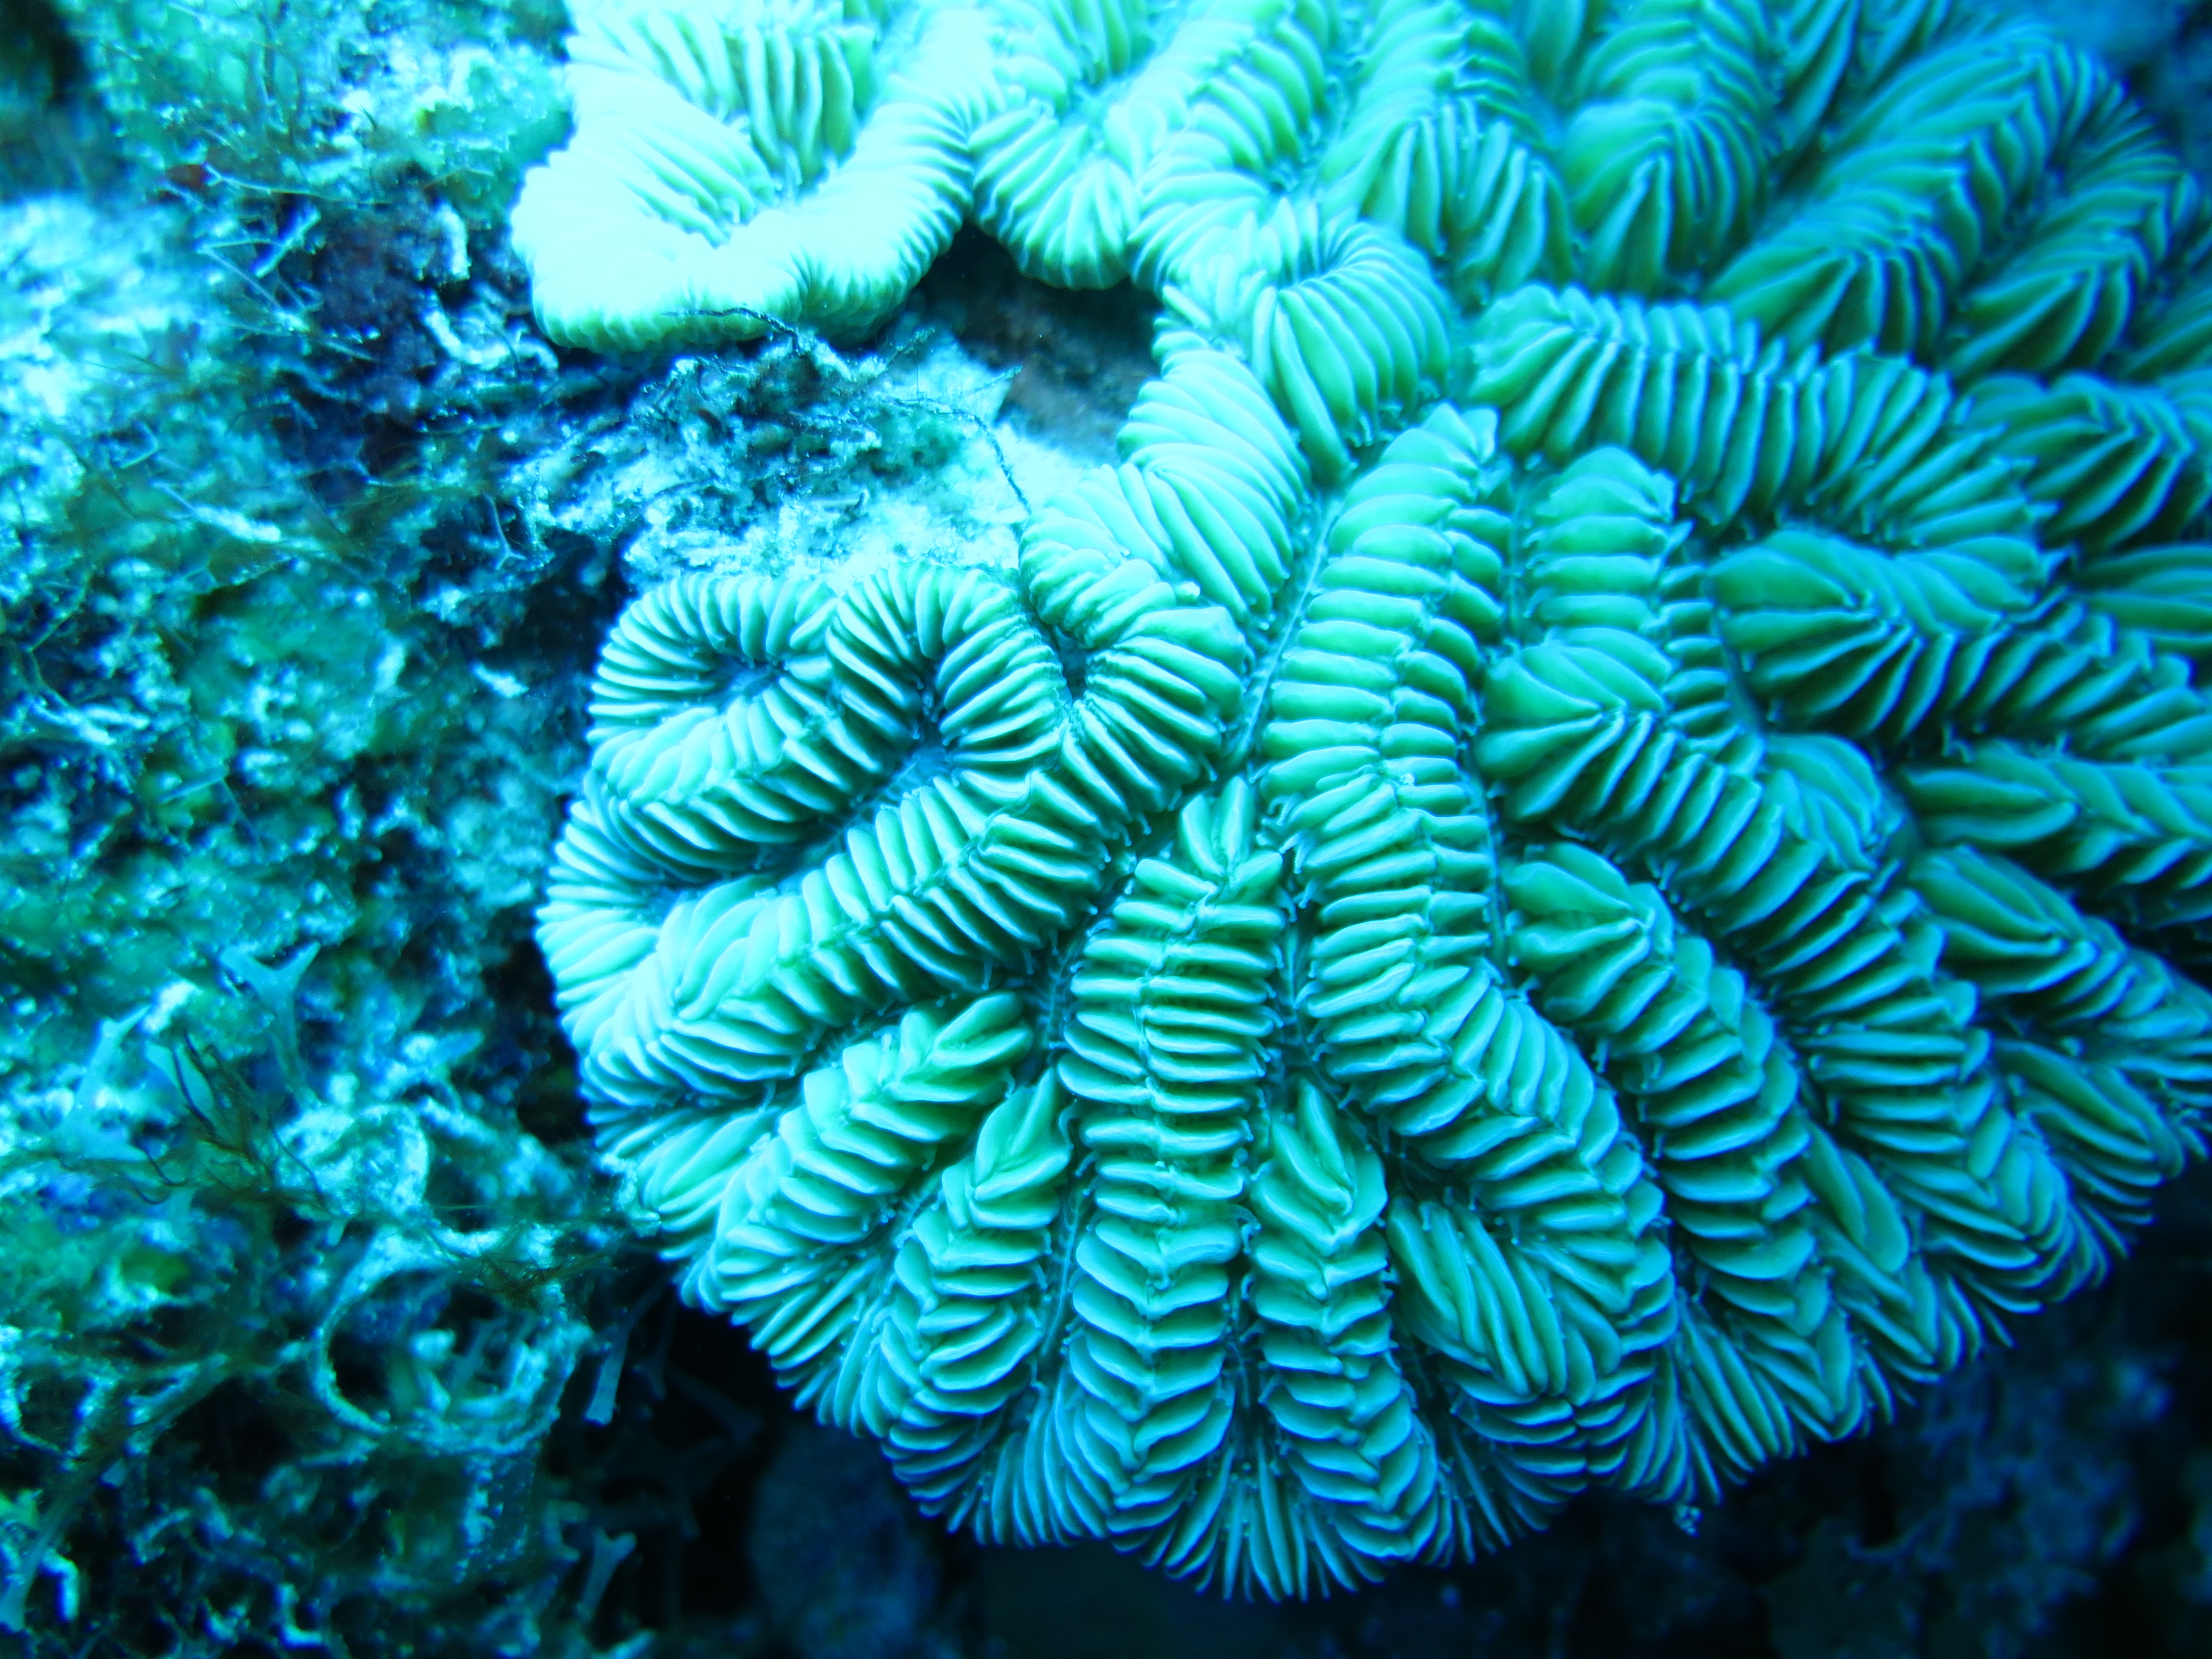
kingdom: Animalia
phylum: Cnidaria
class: Anthozoa
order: Scleractinia
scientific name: Scleractinia
